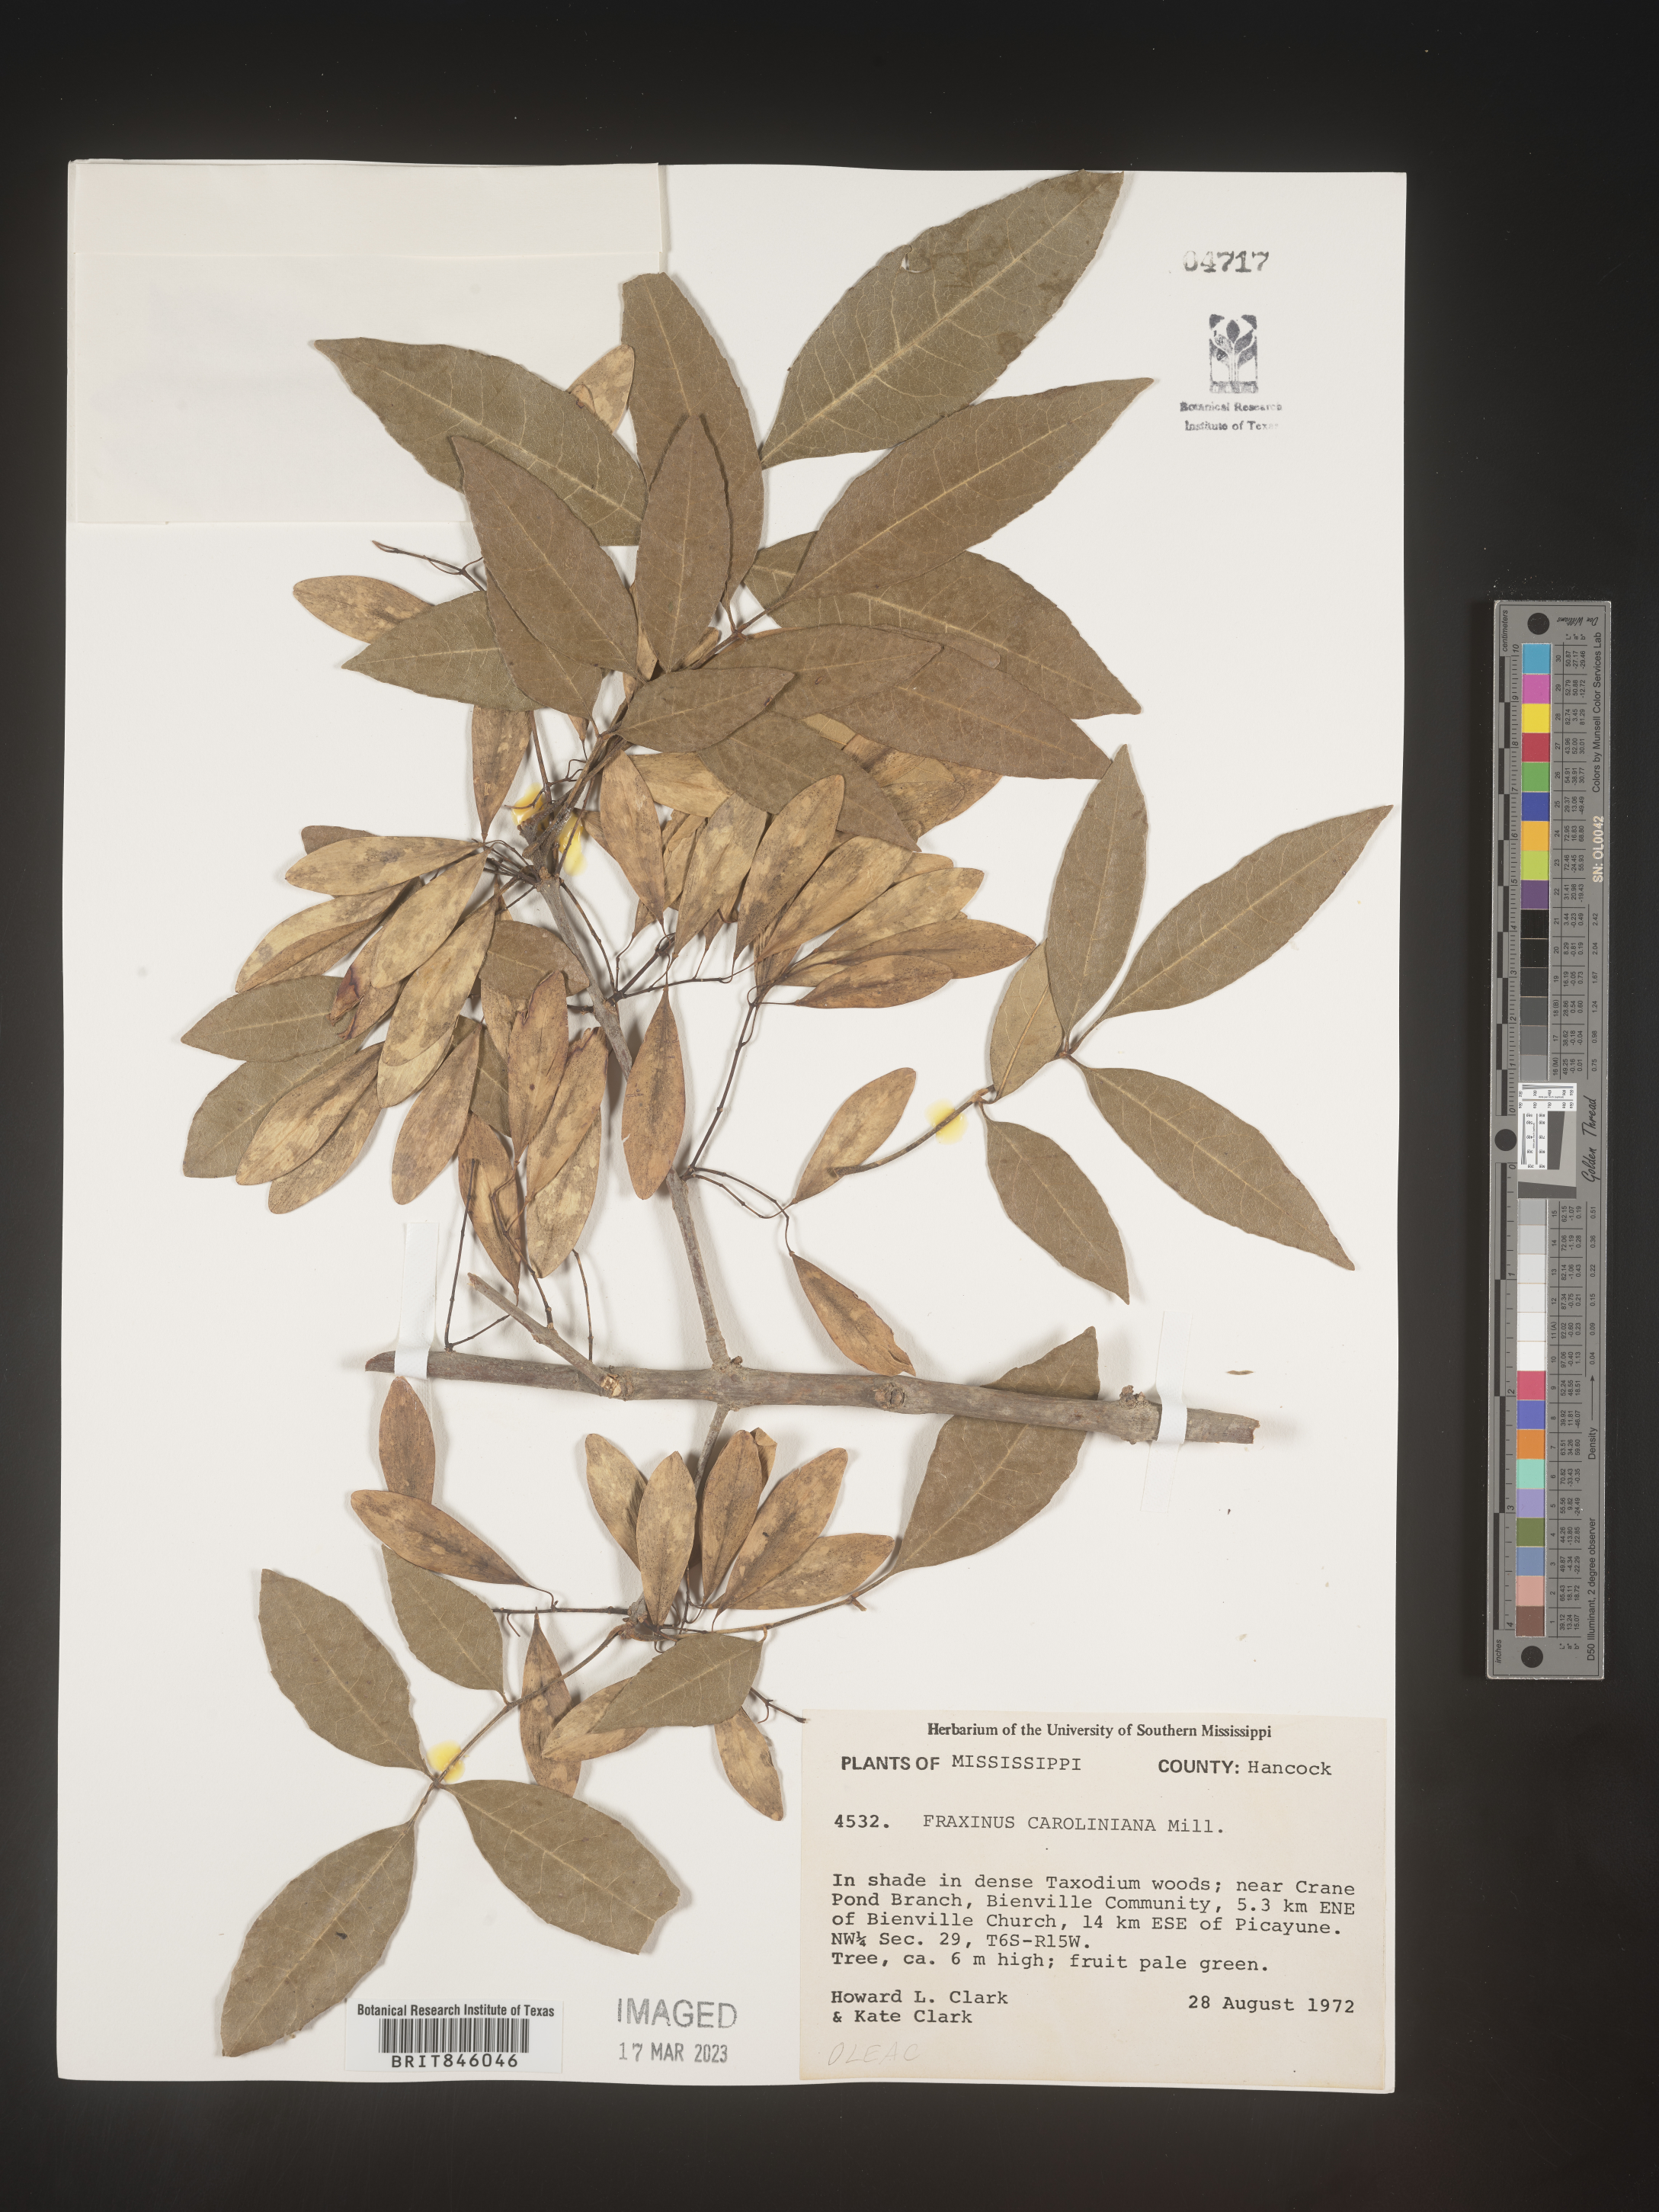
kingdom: Plantae
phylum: Tracheophyta
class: Magnoliopsida
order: Lamiales
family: Oleaceae
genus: Fraxinus
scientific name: Fraxinus caroliniana
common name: Carolina ash
